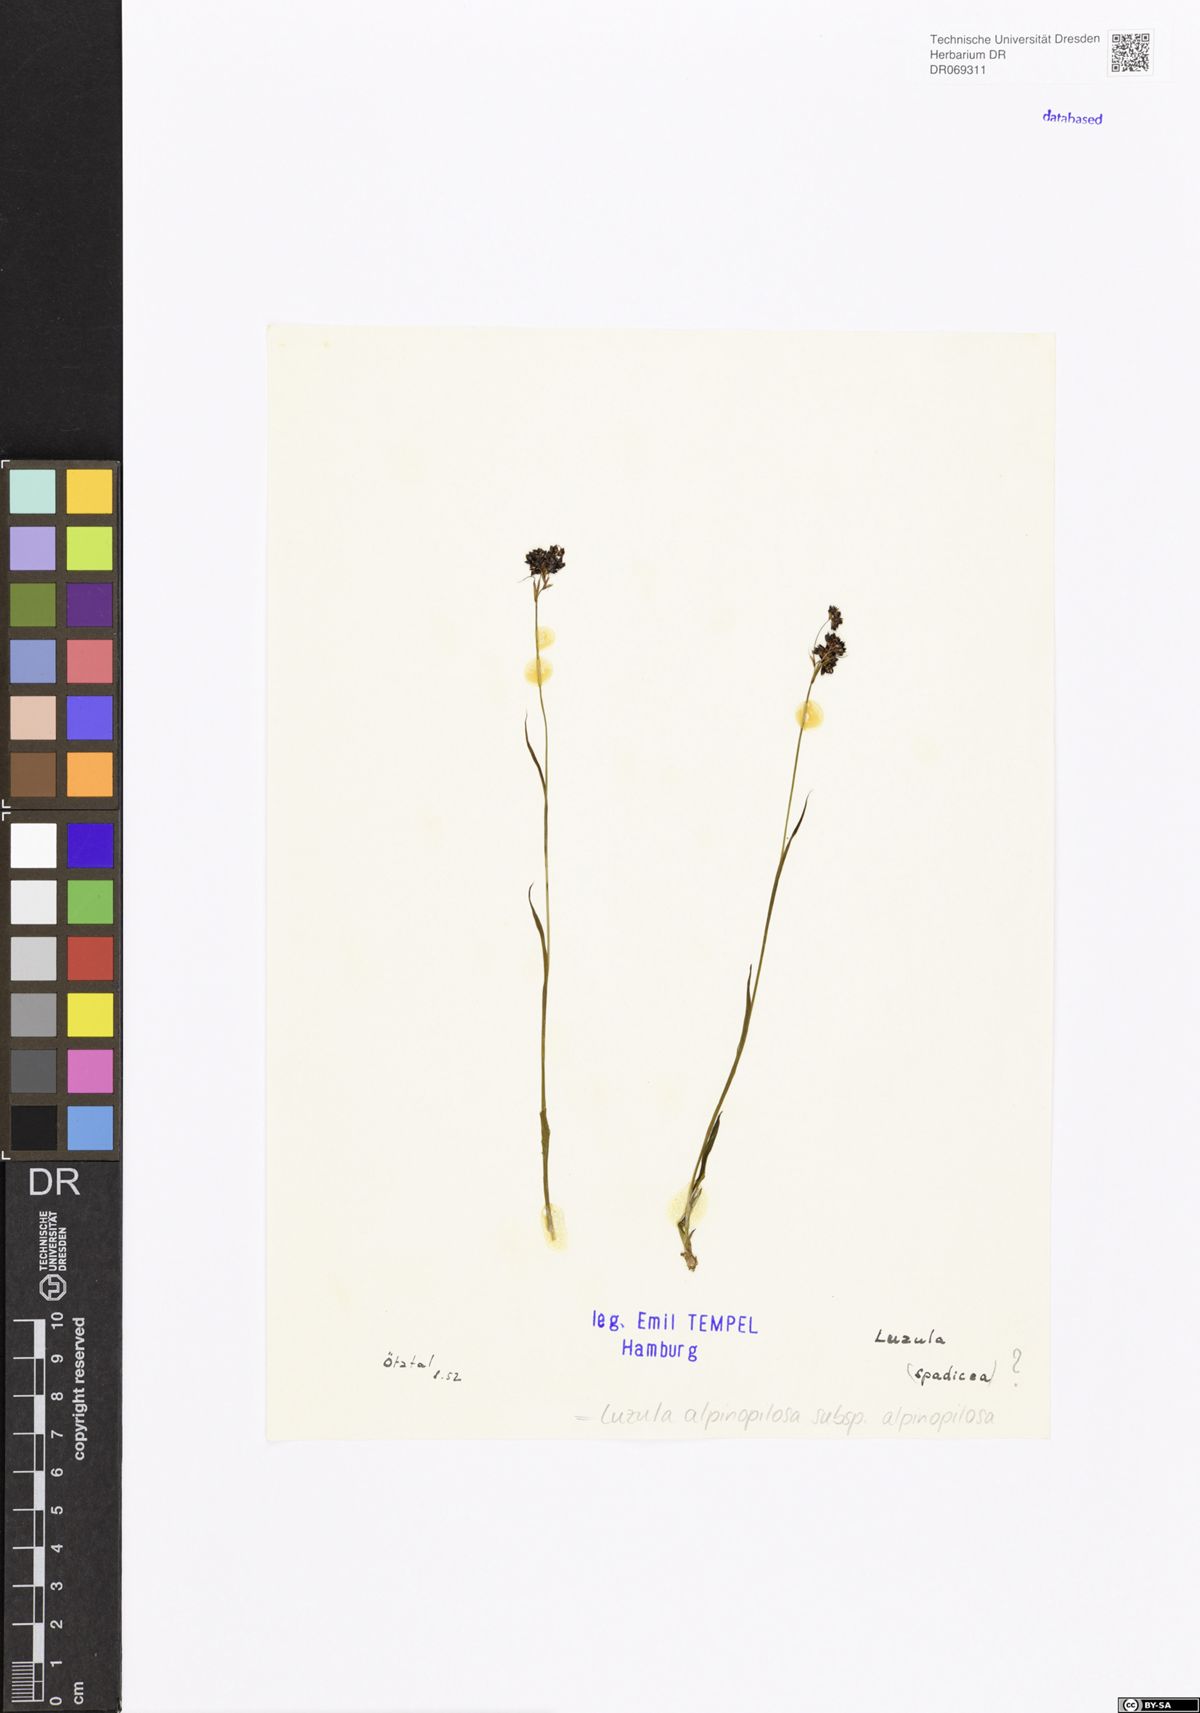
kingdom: Plantae
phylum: Tracheophyta
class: Liliopsida
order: Poales
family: Juncaceae
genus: Luzula
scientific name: Luzula alpinopilosa
